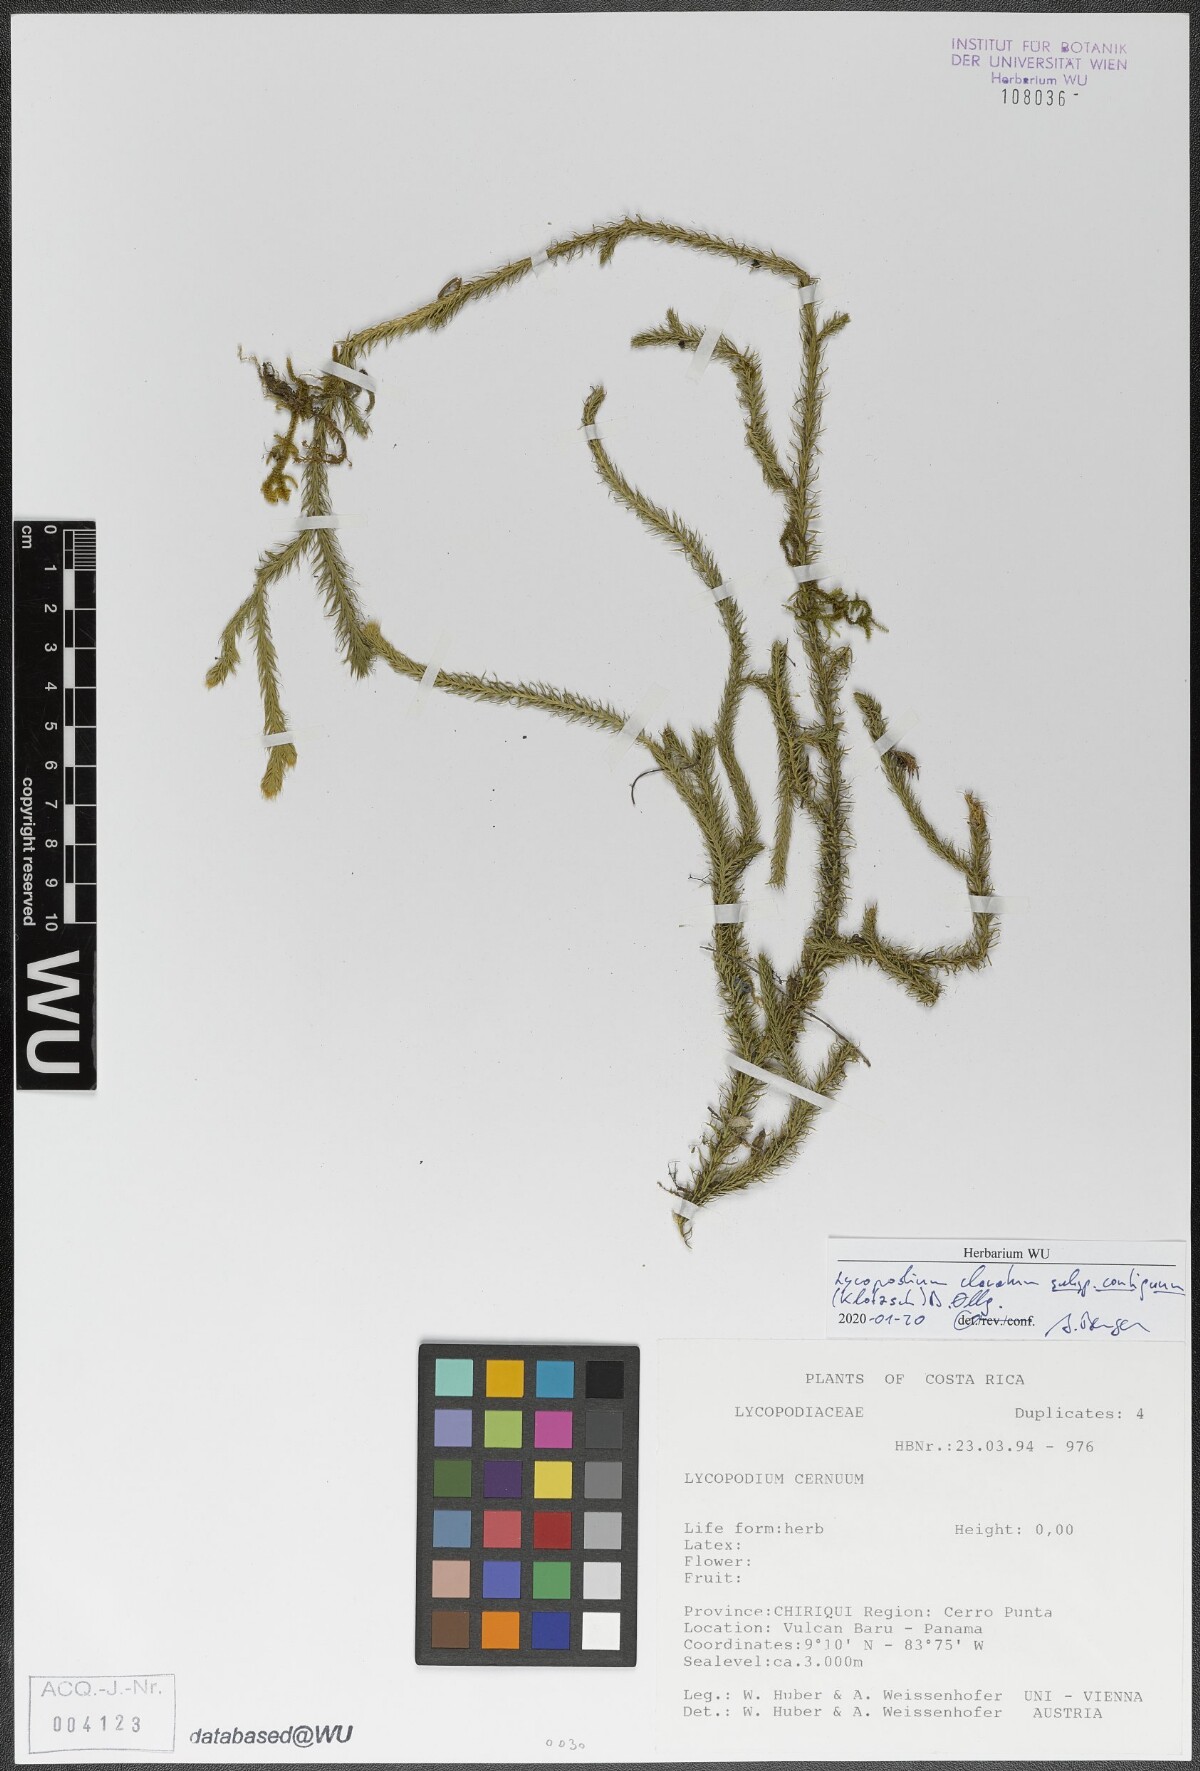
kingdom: Plantae
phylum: Tracheophyta
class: Lycopodiopsida
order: Lycopodiales
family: Lycopodiaceae
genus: Lycopodium
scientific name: Lycopodium clavatum
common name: Stag's-horn clubmoss
